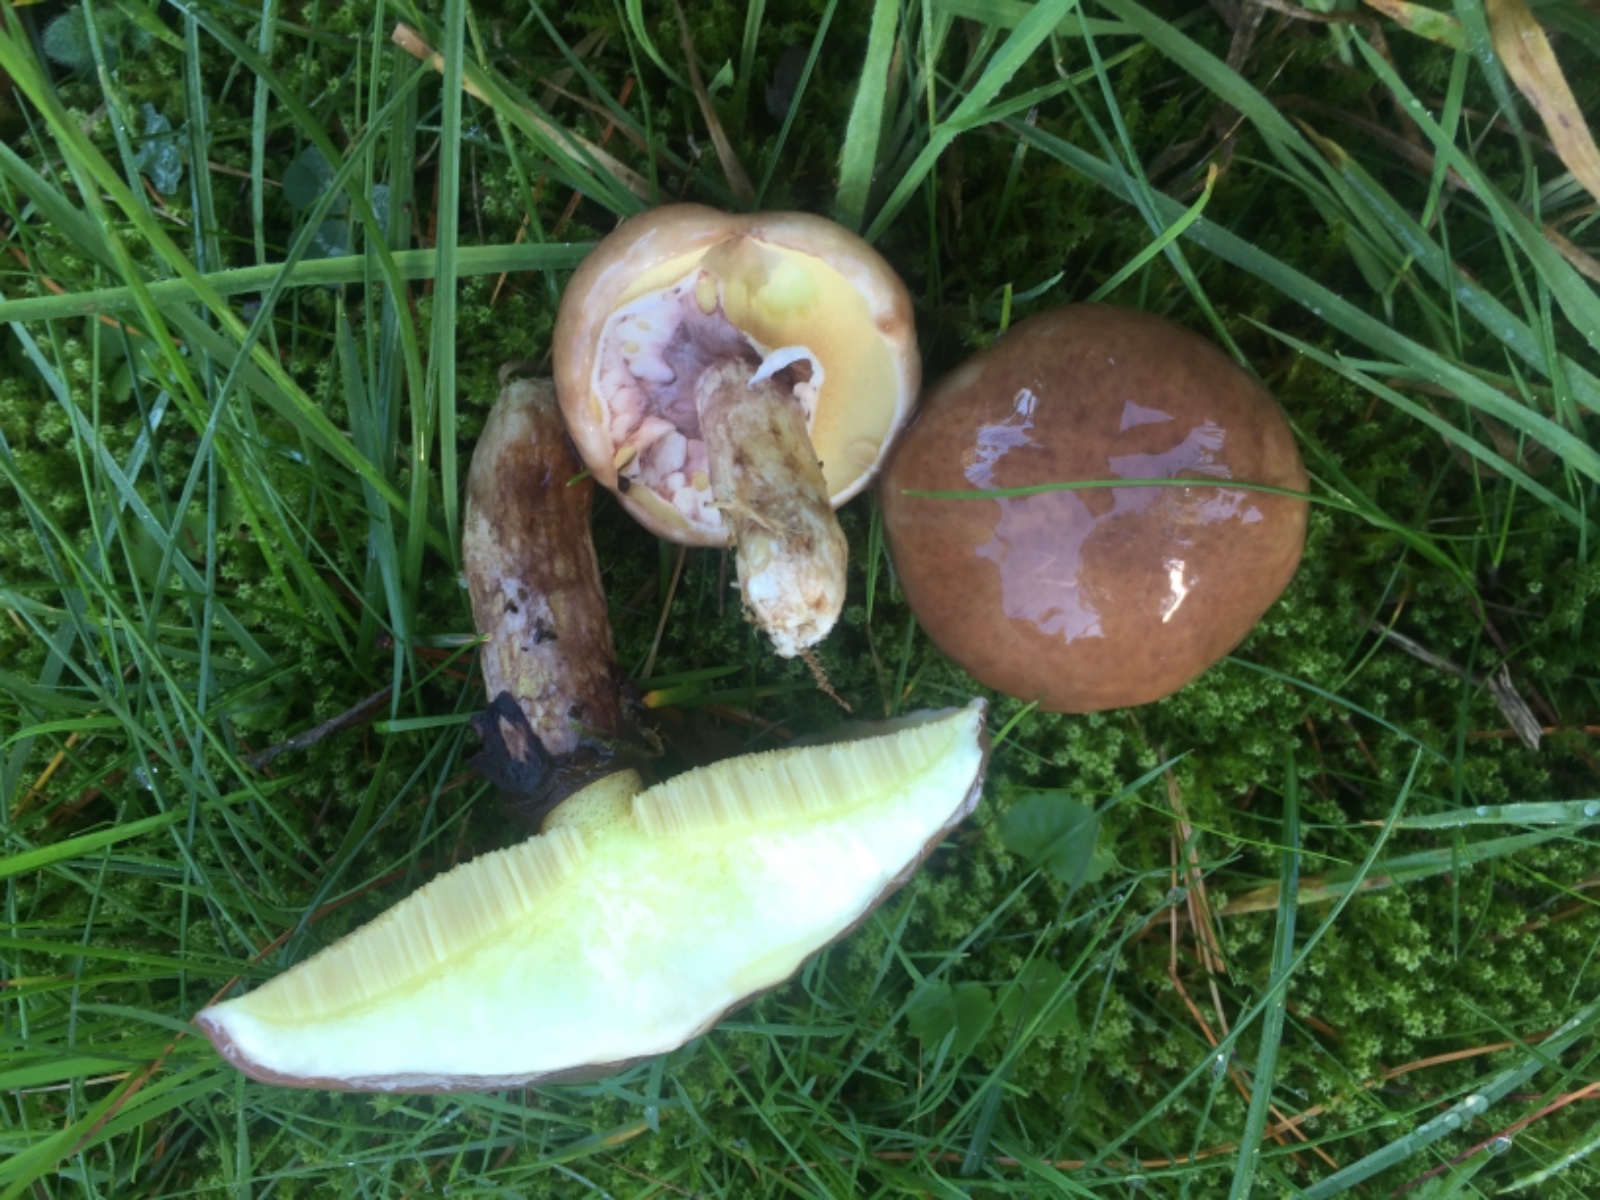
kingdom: Fungi
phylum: Basidiomycota
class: Agaricomycetes
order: Boletales
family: Suillaceae
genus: Suillus
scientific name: Suillus luteus
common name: brungul slimrørhat
